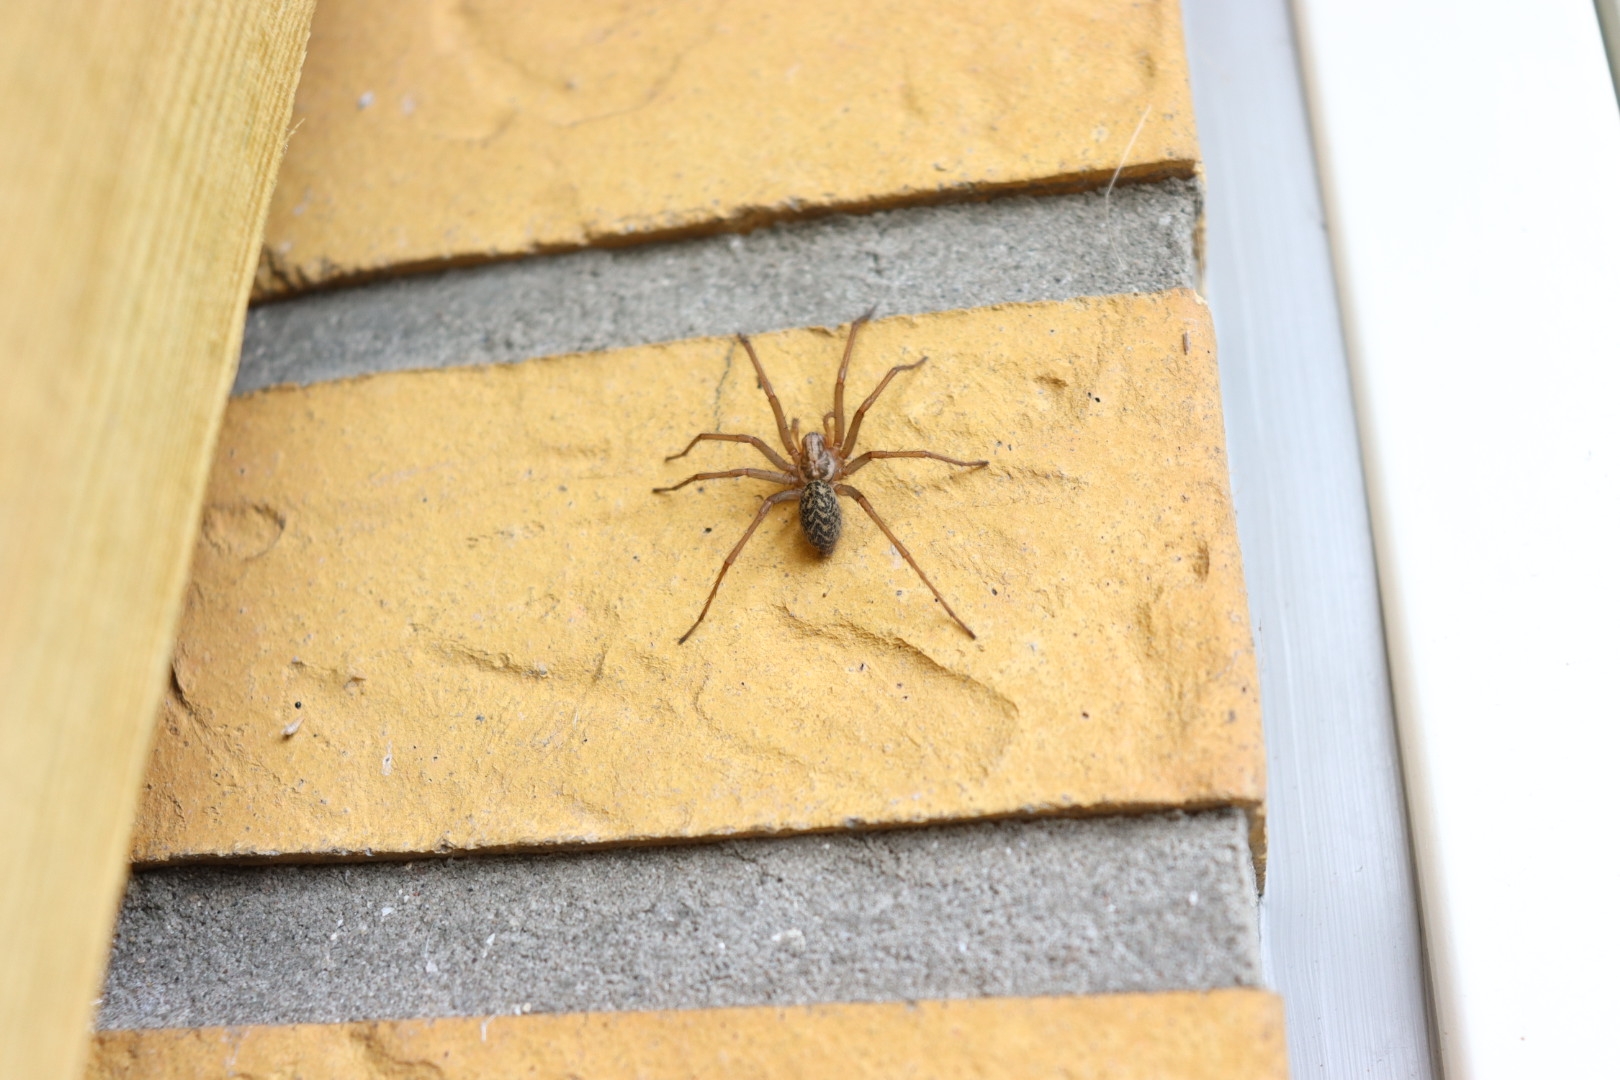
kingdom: Animalia
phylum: Arthropoda
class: Arachnida
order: Araneae
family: Agelenidae
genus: Eratigena
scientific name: Eratigena atrica
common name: Stor husedderkop
